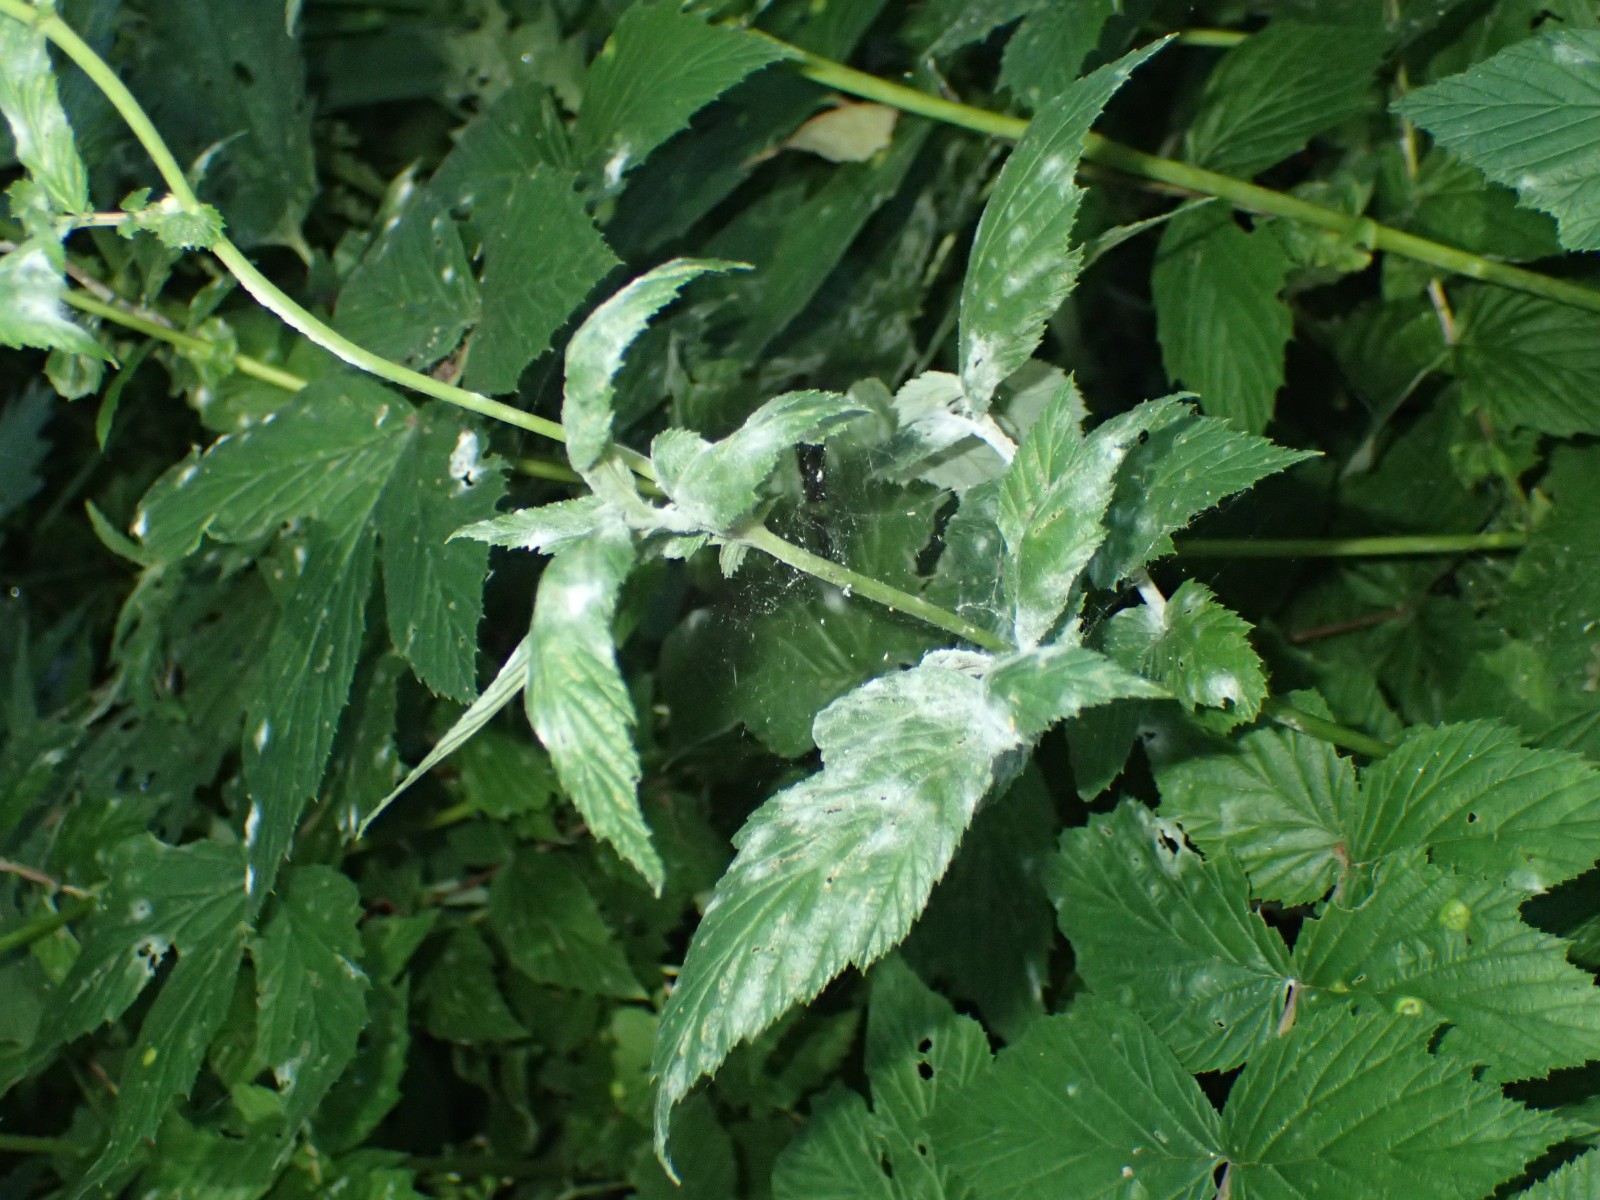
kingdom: Fungi
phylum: Ascomycota
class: Leotiomycetes
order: Helotiales
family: Erysiphaceae
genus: Podosphaera
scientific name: Podosphaera filipendulae
